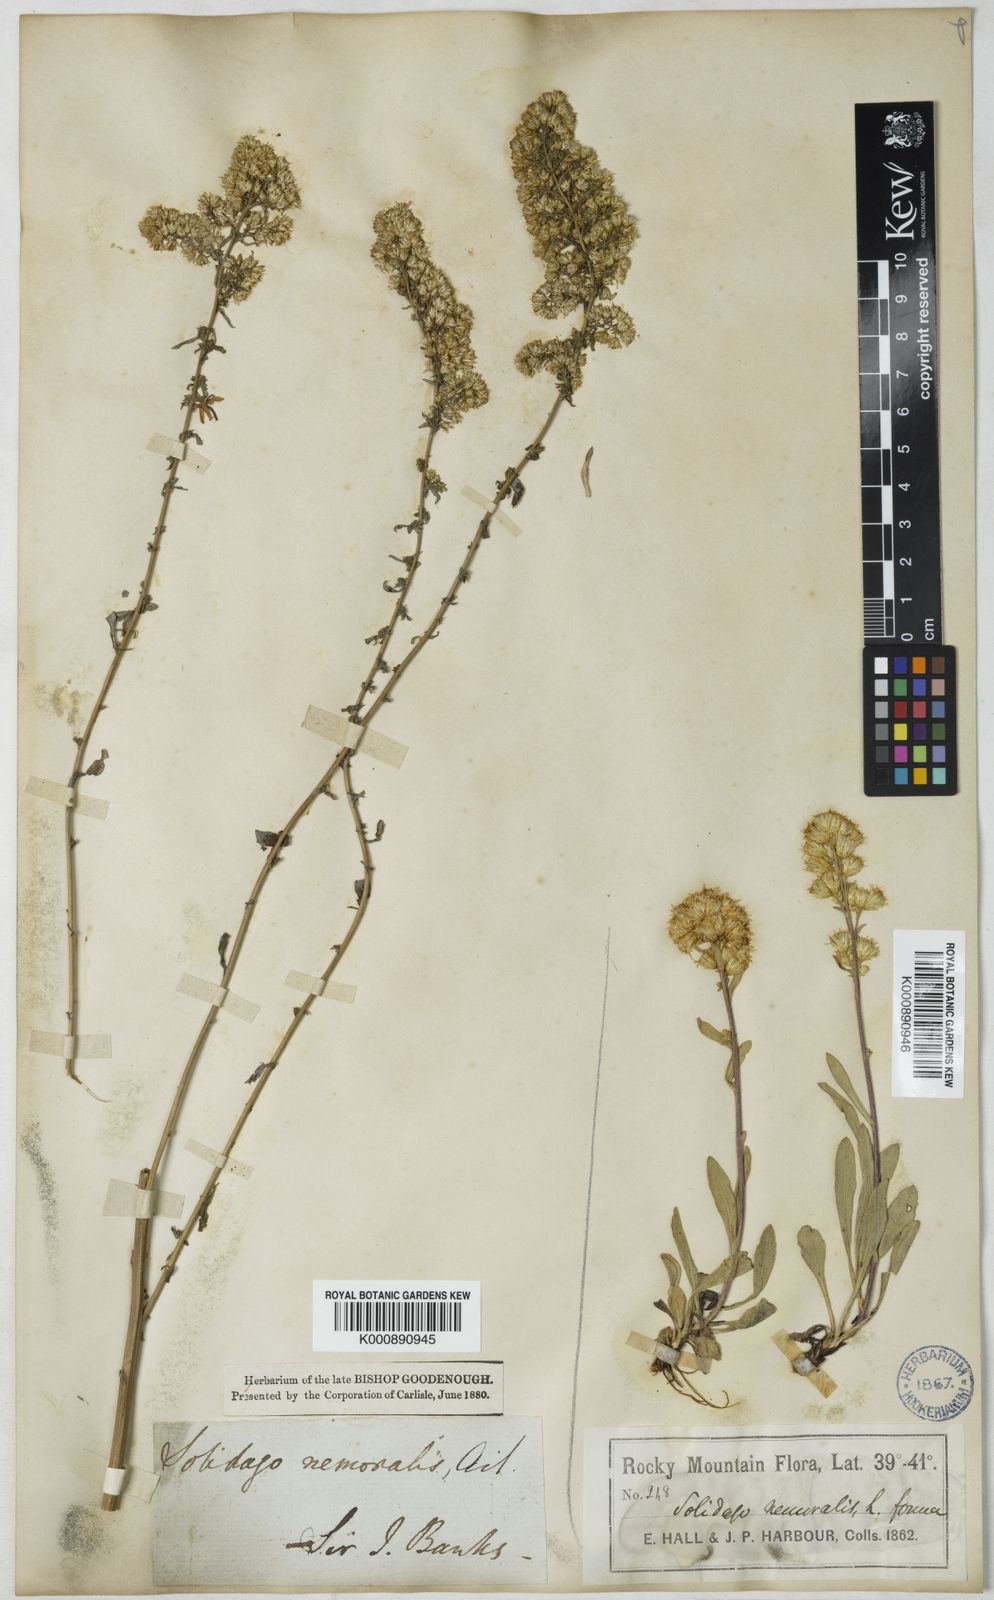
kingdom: Plantae
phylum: Tracheophyta
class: Magnoliopsida
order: Asterales
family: Asteraceae
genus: Solidago
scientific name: Solidago nemoralis
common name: Grey goldenrod
